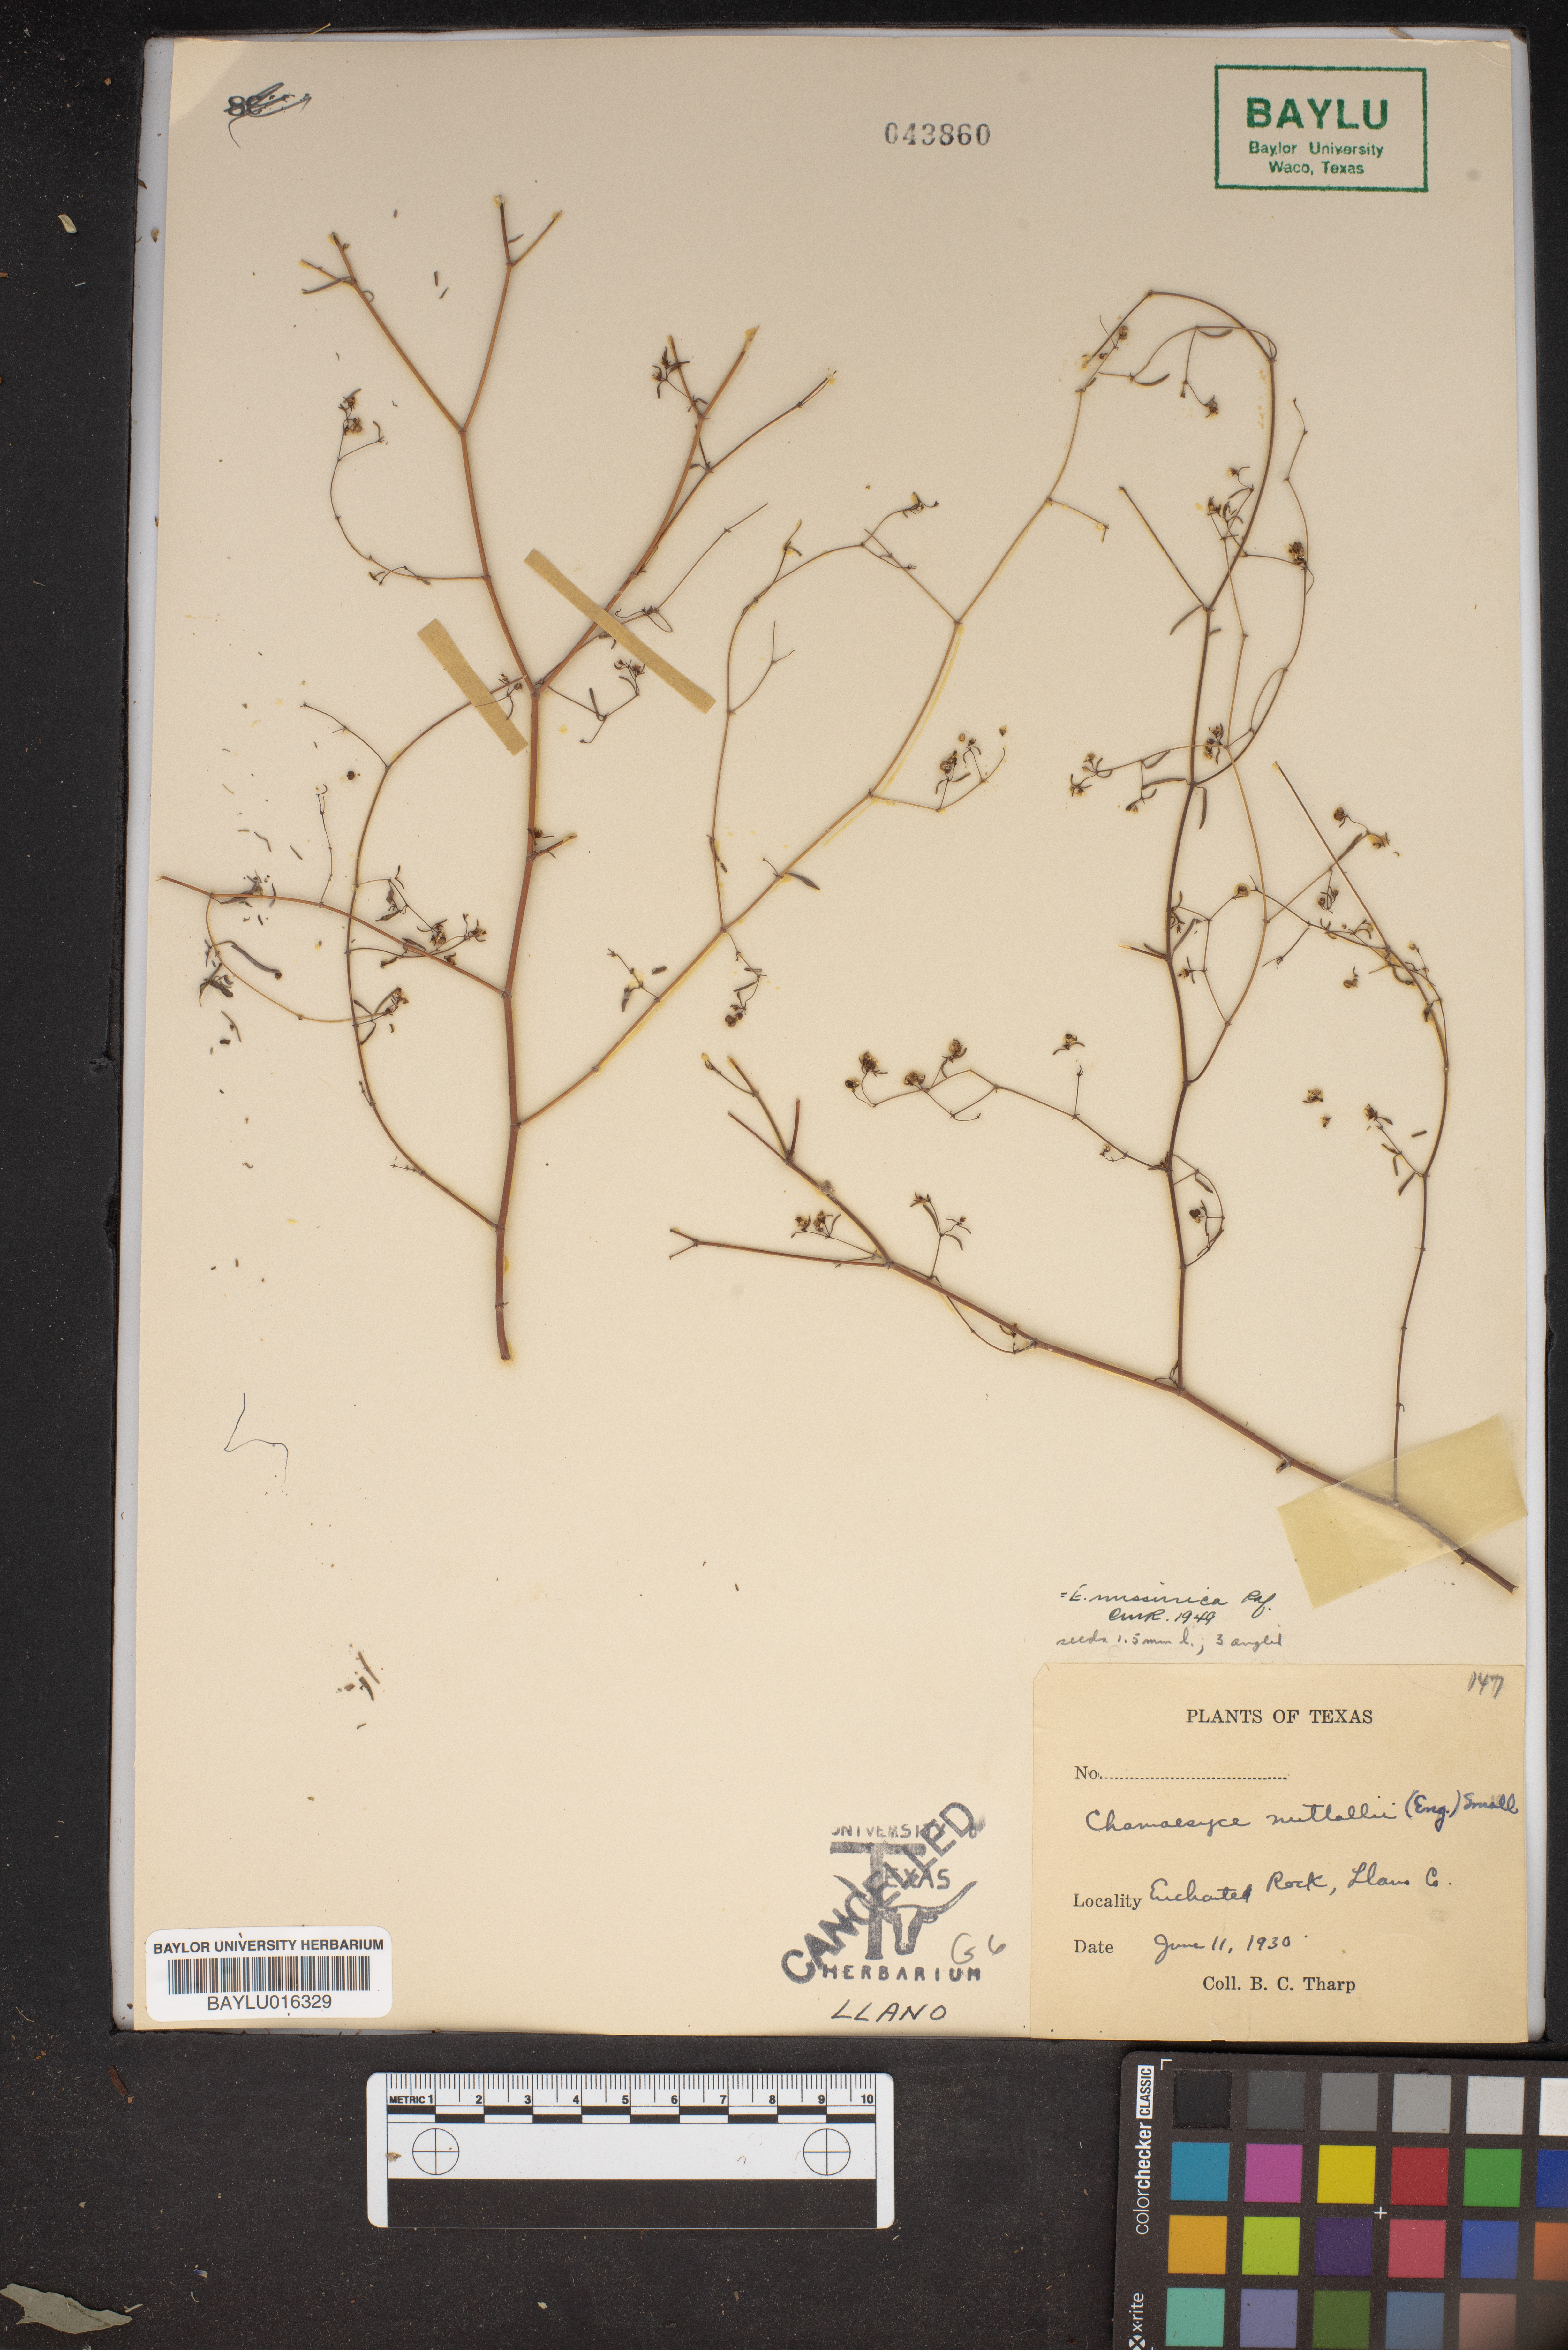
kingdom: Plantae
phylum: Tracheophyta
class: Magnoliopsida
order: Malpighiales
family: Euphorbiaceae
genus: Euphorbia
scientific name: Euphorbia missurica
